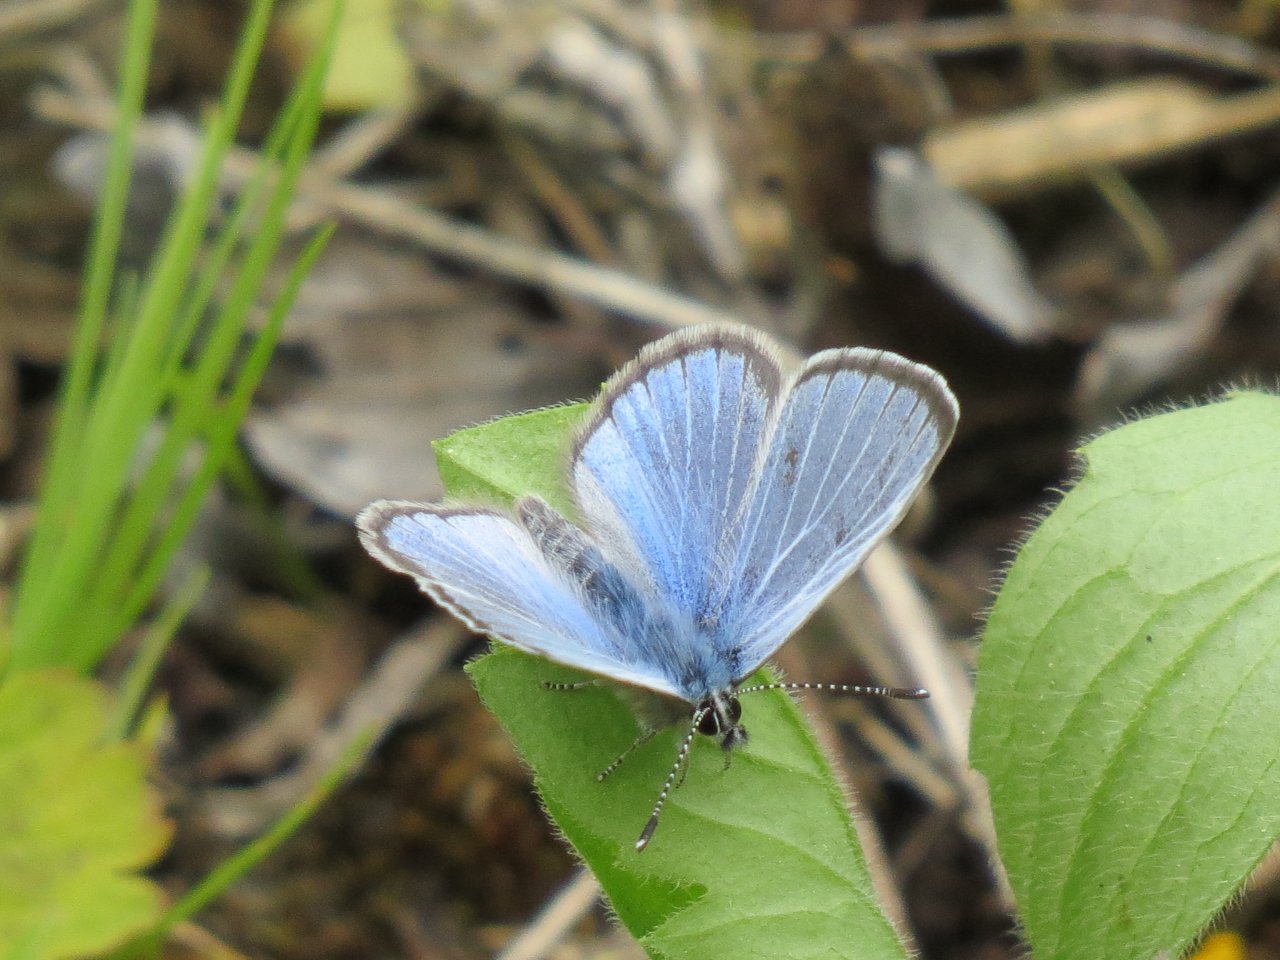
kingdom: Animalia
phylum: Arthropoda
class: Insecta
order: Lepidoptera
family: Lycaenidae
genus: Glaucopsyche
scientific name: Glaucopsyche lygdamus
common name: Silvery Blue
